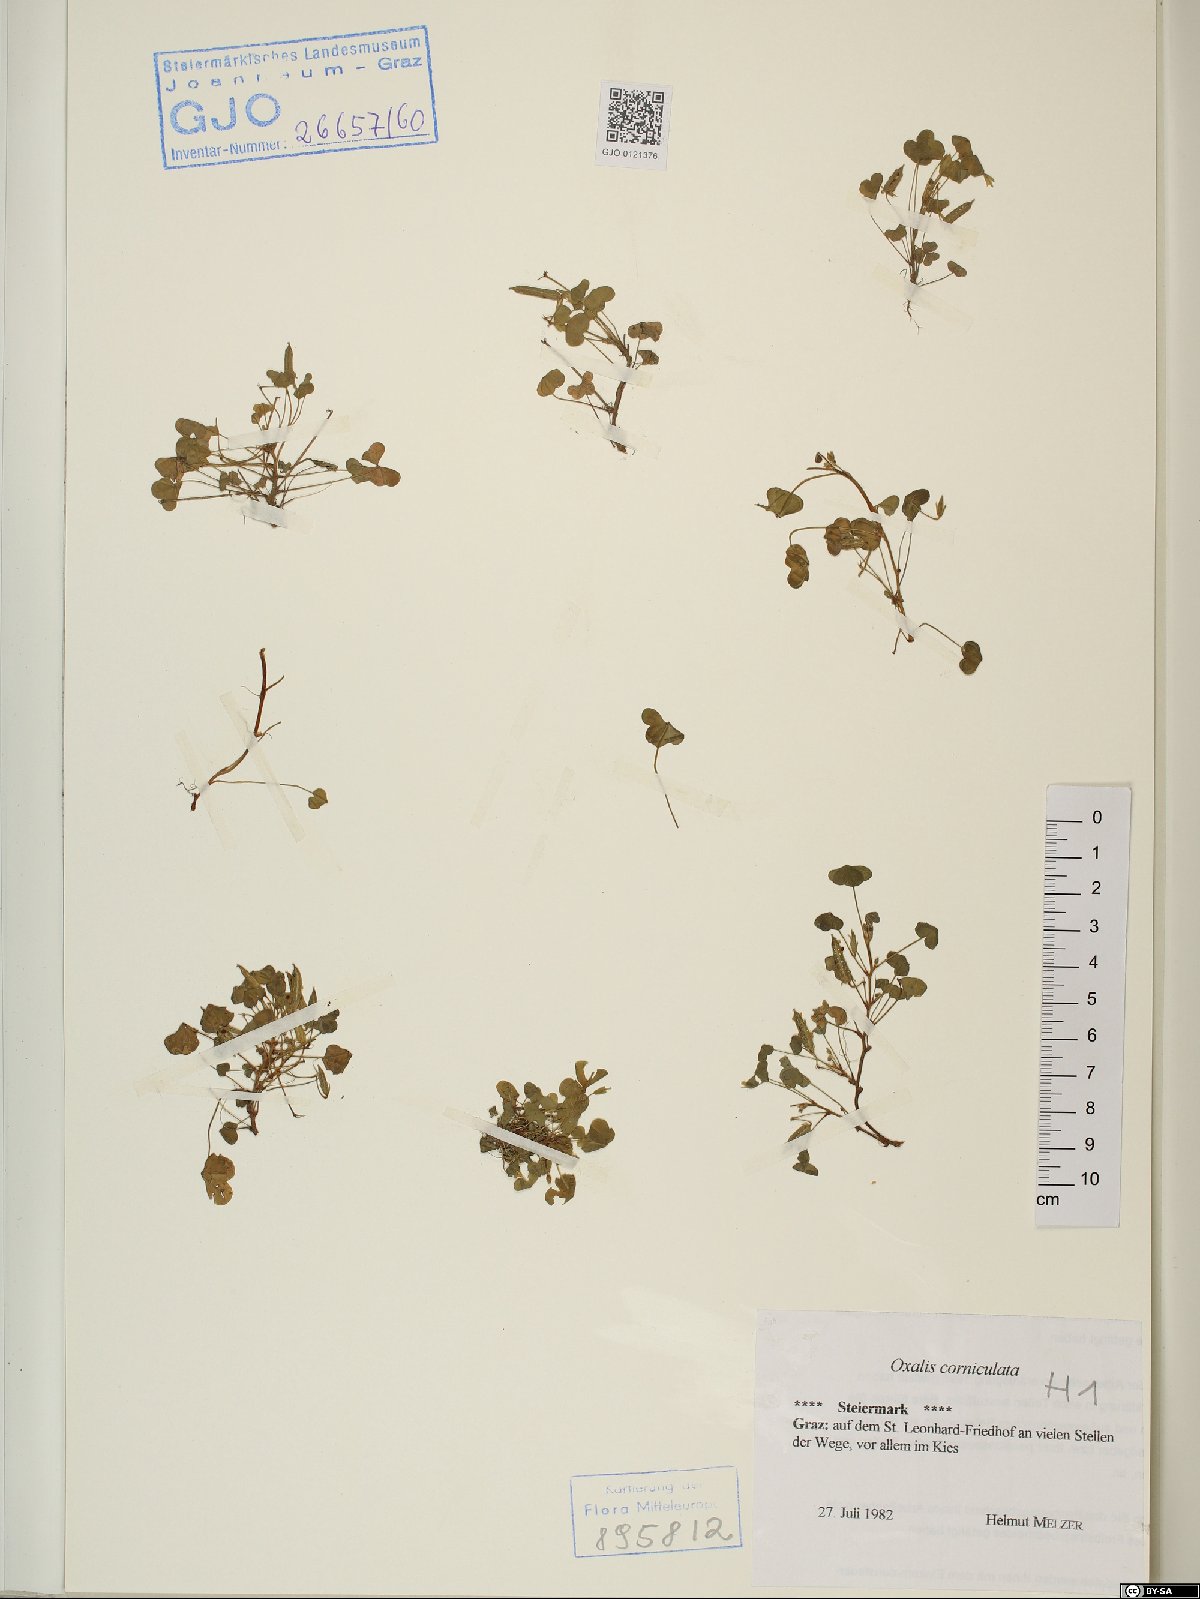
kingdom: Plantae
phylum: Tracheophyta
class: Magnoliopsida
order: Oxalidales
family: Oxalidaceae
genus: Oxalis
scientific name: Oxalis corniculata
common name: Procumbent yellow-sorrel
